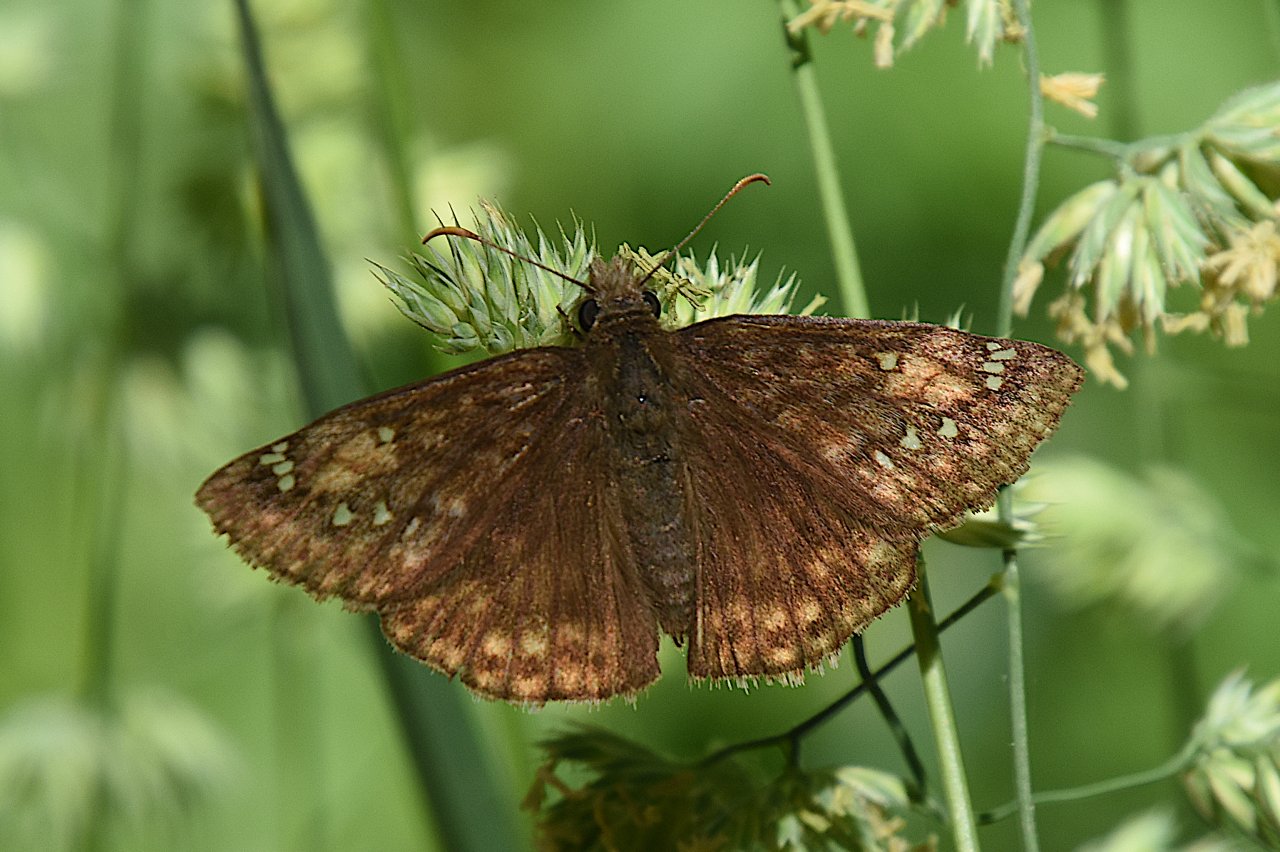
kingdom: Animalia
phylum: Arthropoda
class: Insecta
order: Lepidoptera
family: Hesperiidae
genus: Gesta
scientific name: Gesta
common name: Juvenal's Duskywing
